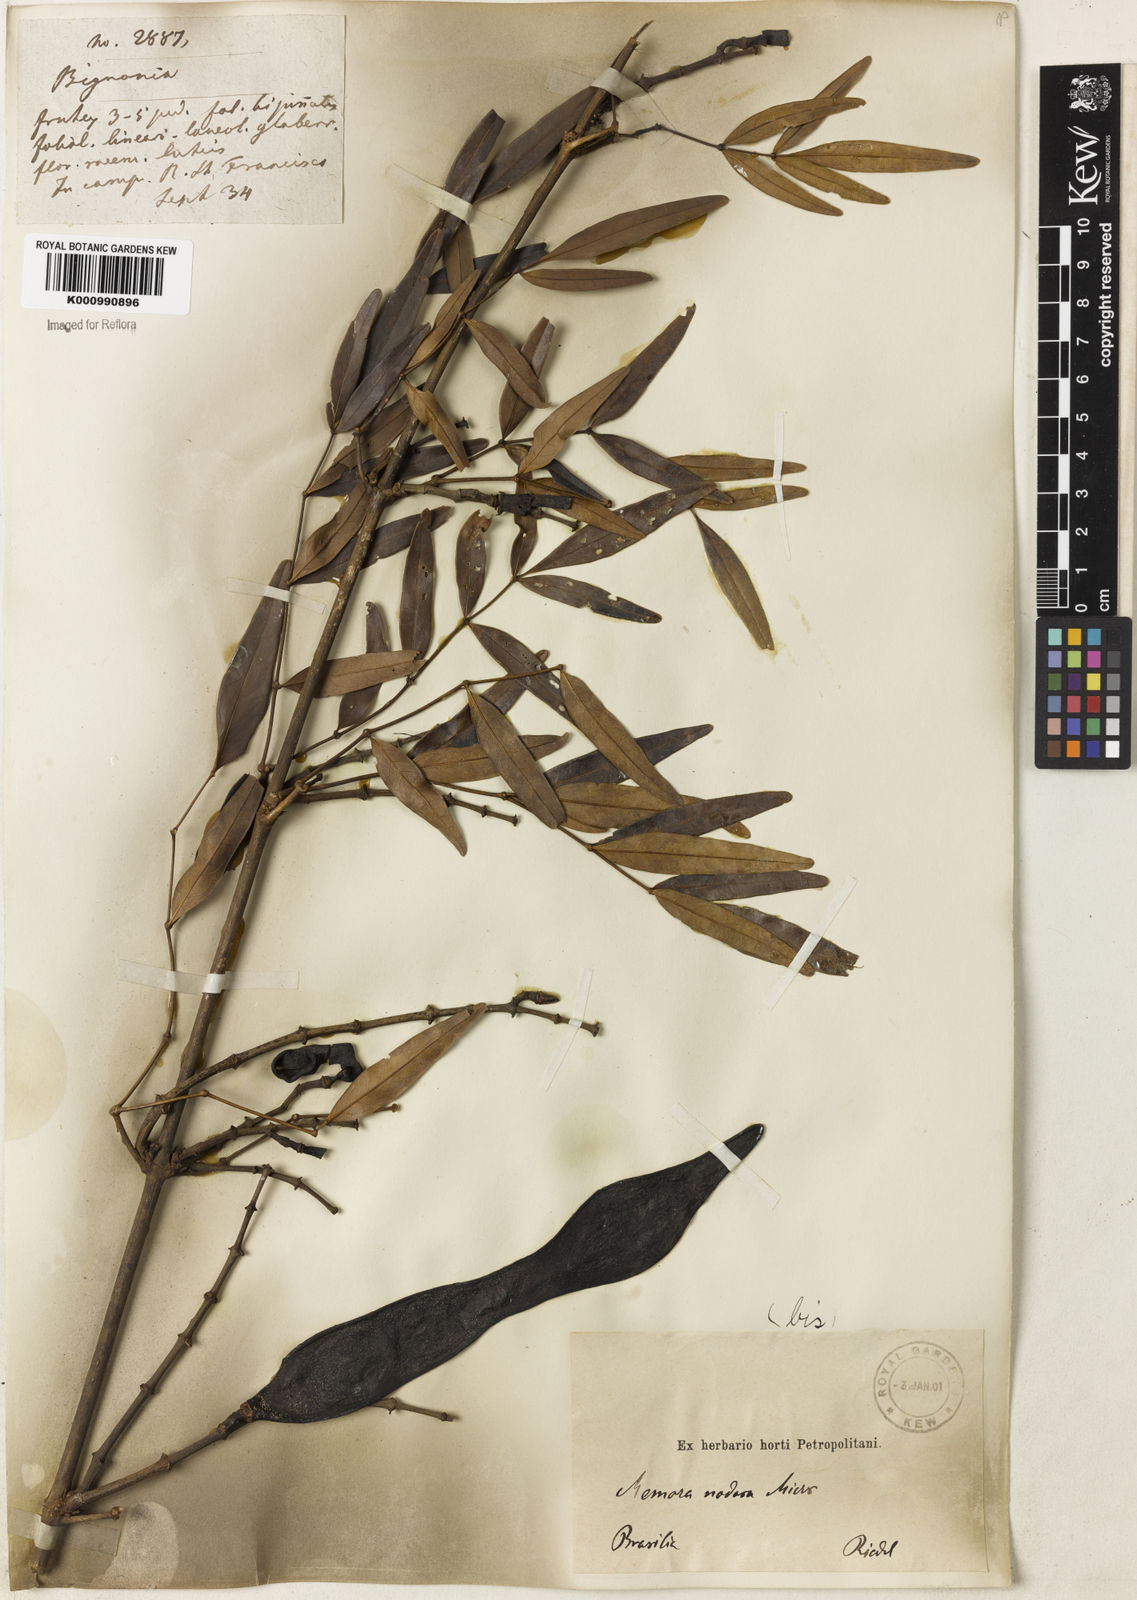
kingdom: Plantae
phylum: Tracheophyta
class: Magnoliopsida
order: Lamiales
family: Bignoniaceae
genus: Adenocalymma
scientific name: Adenocalymma nodosum
